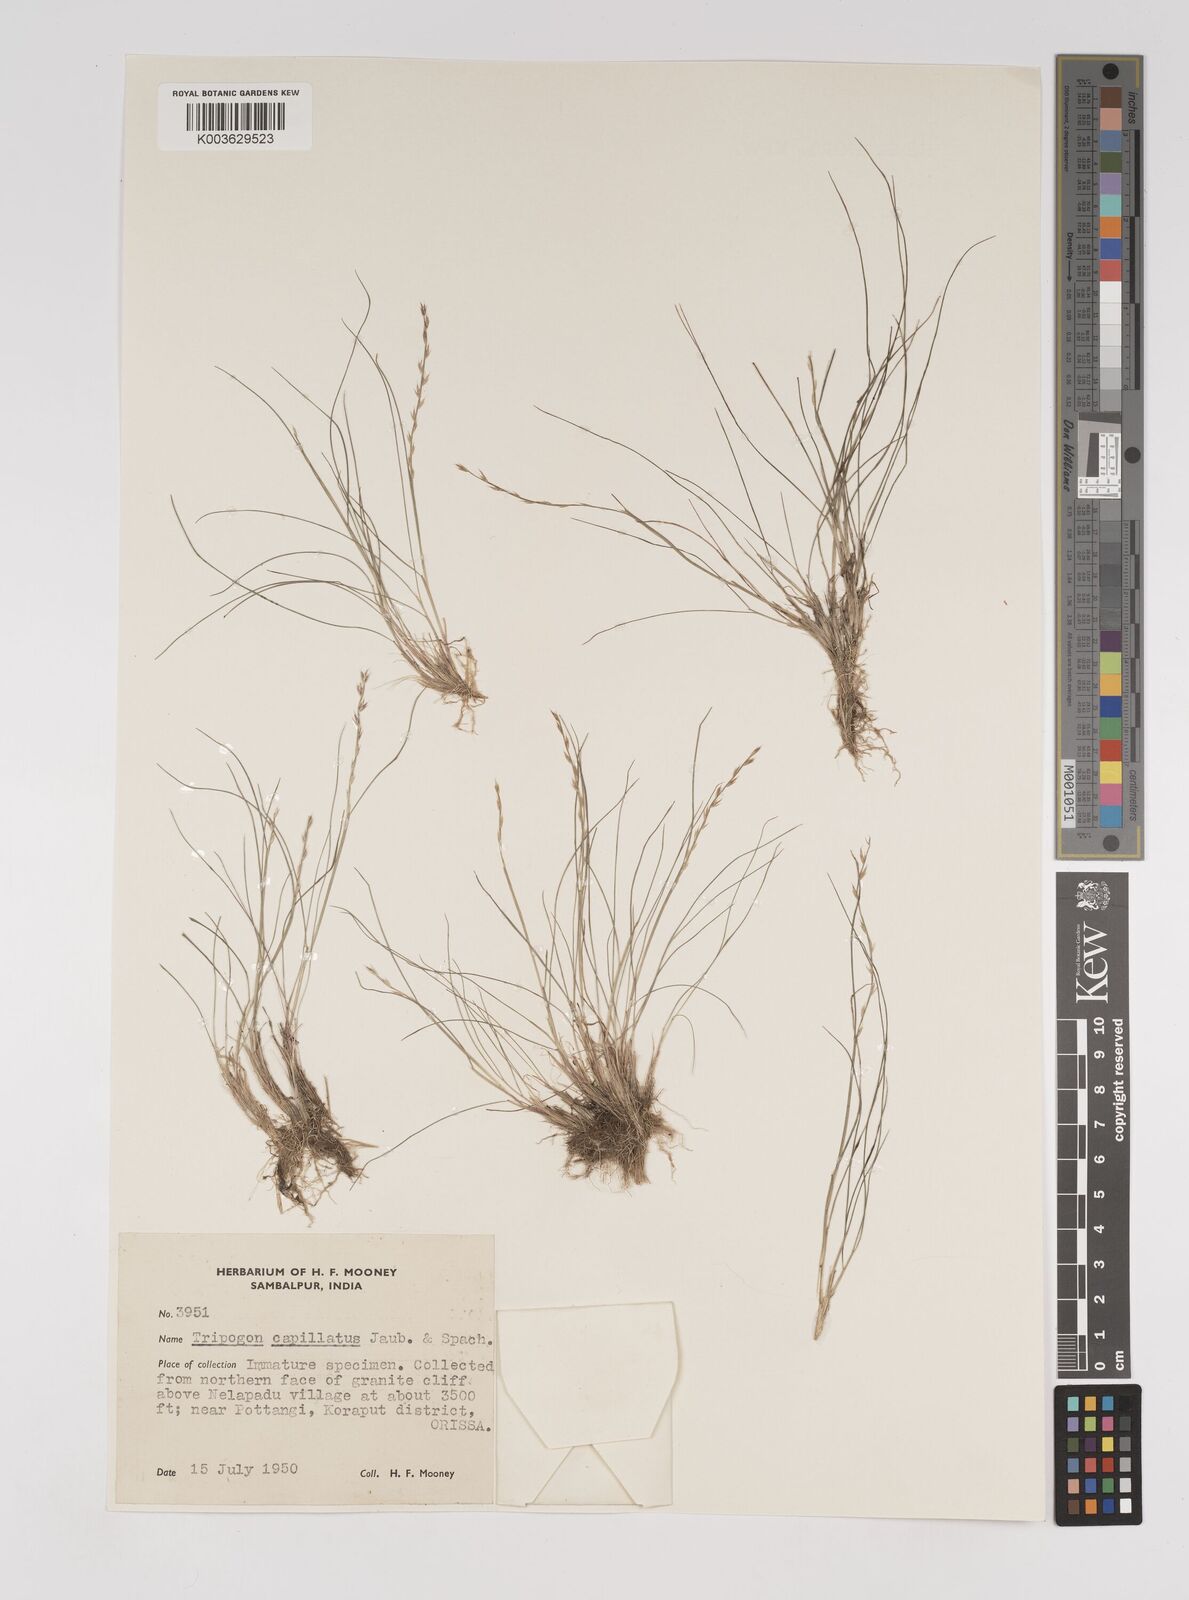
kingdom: Plantae
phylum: Tracheophyta
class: Liliopsida
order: Poales
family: Poaceae
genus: Tripogon
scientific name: Tripogon capillatus
